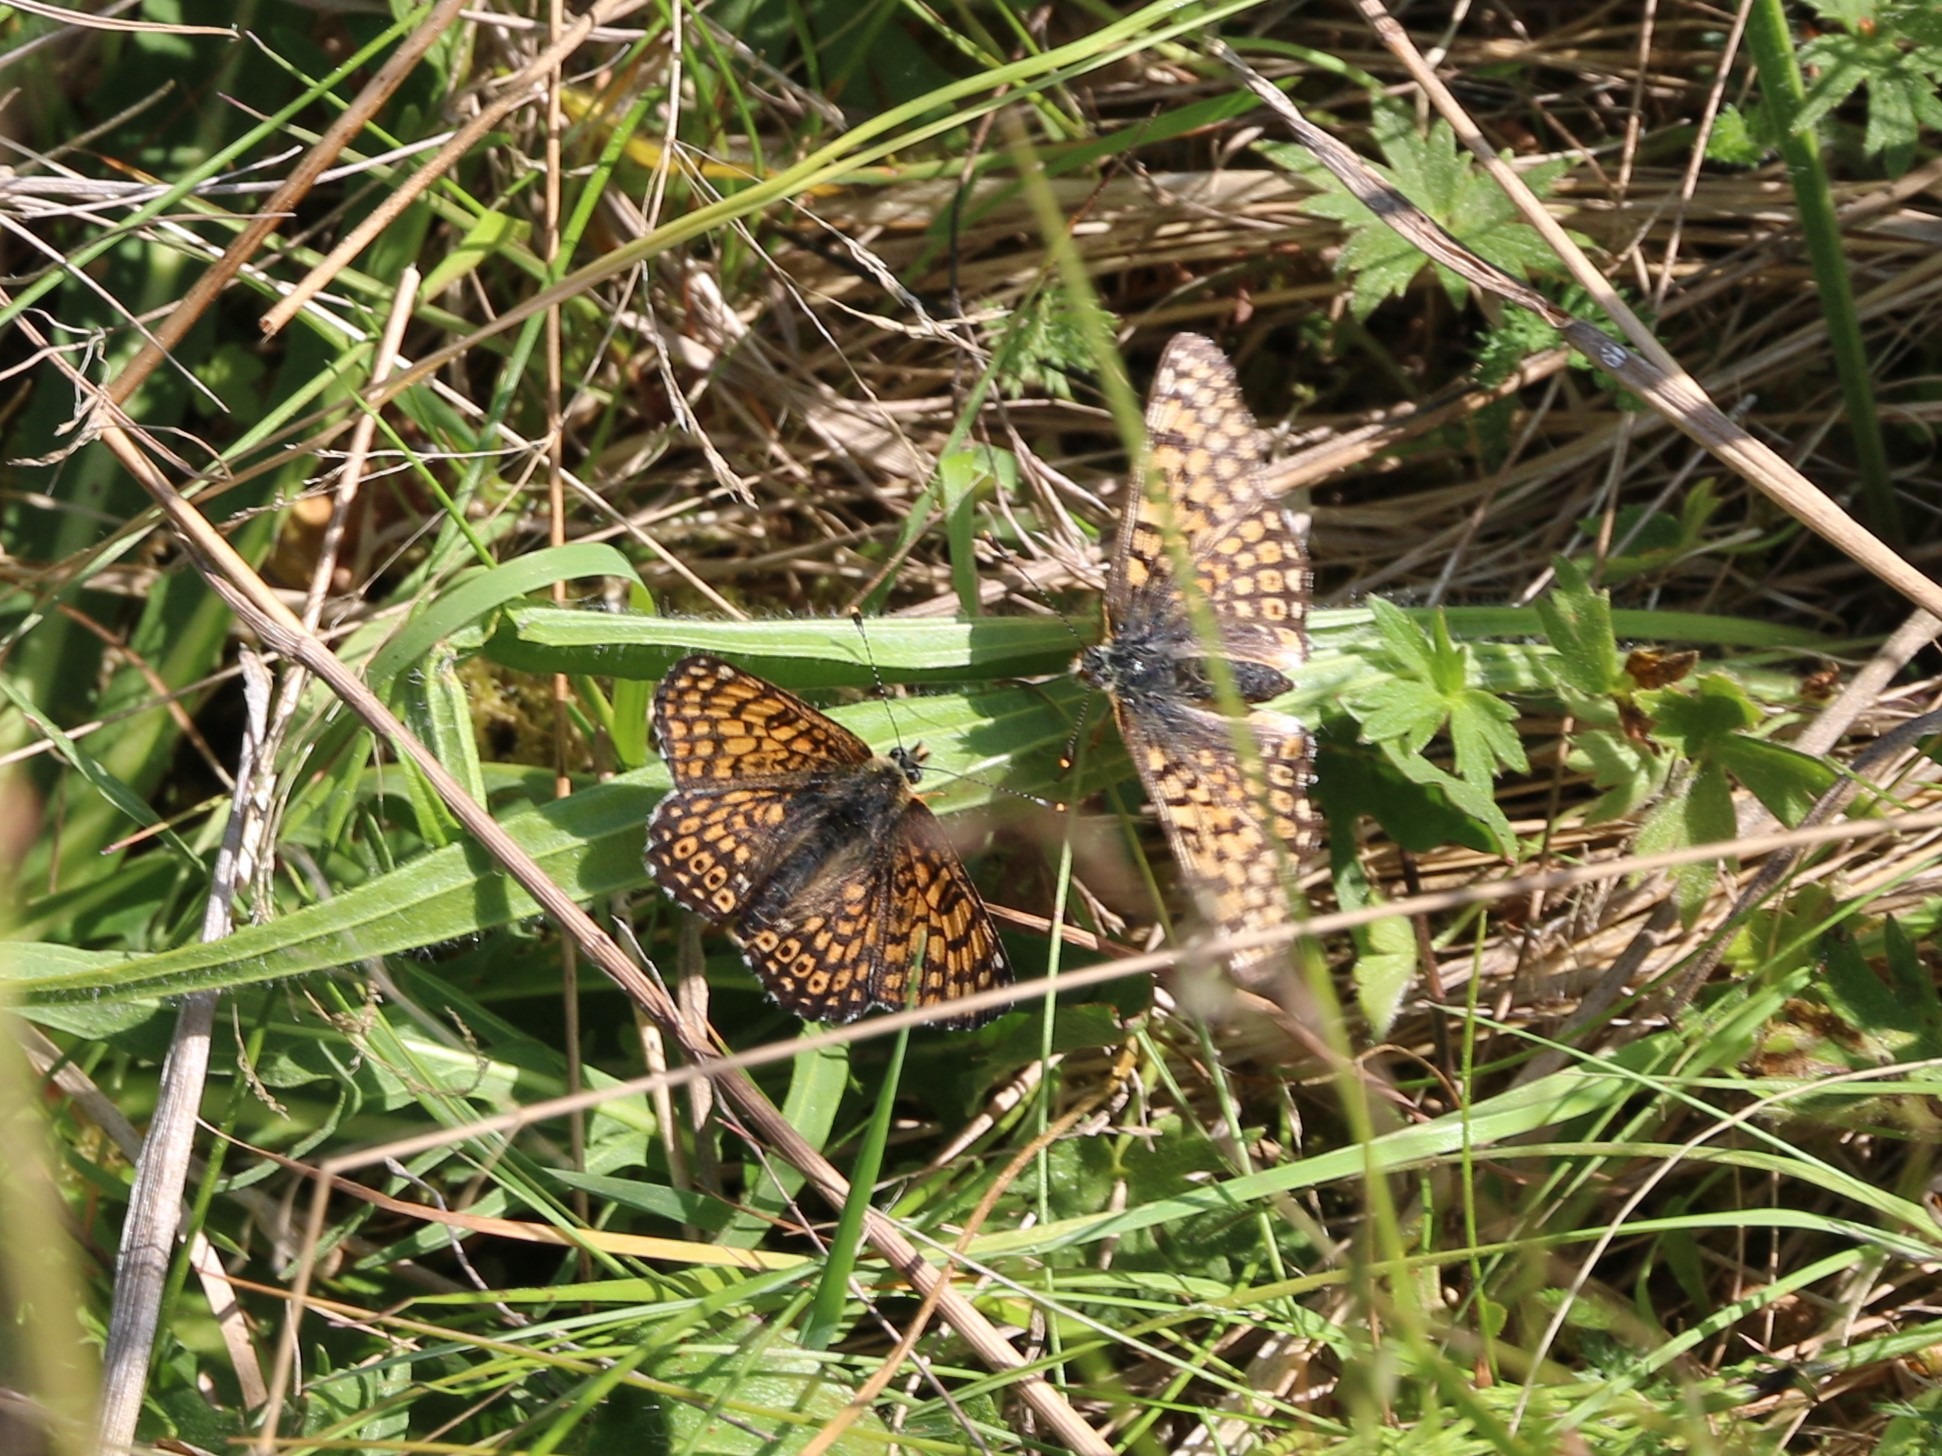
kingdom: Animalia
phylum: Arthropoda
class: Insecta
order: Lepidoptera
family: Nymphalidae
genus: Melitaea
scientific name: Melitaea cinxia
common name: Okkergul pletvinge
